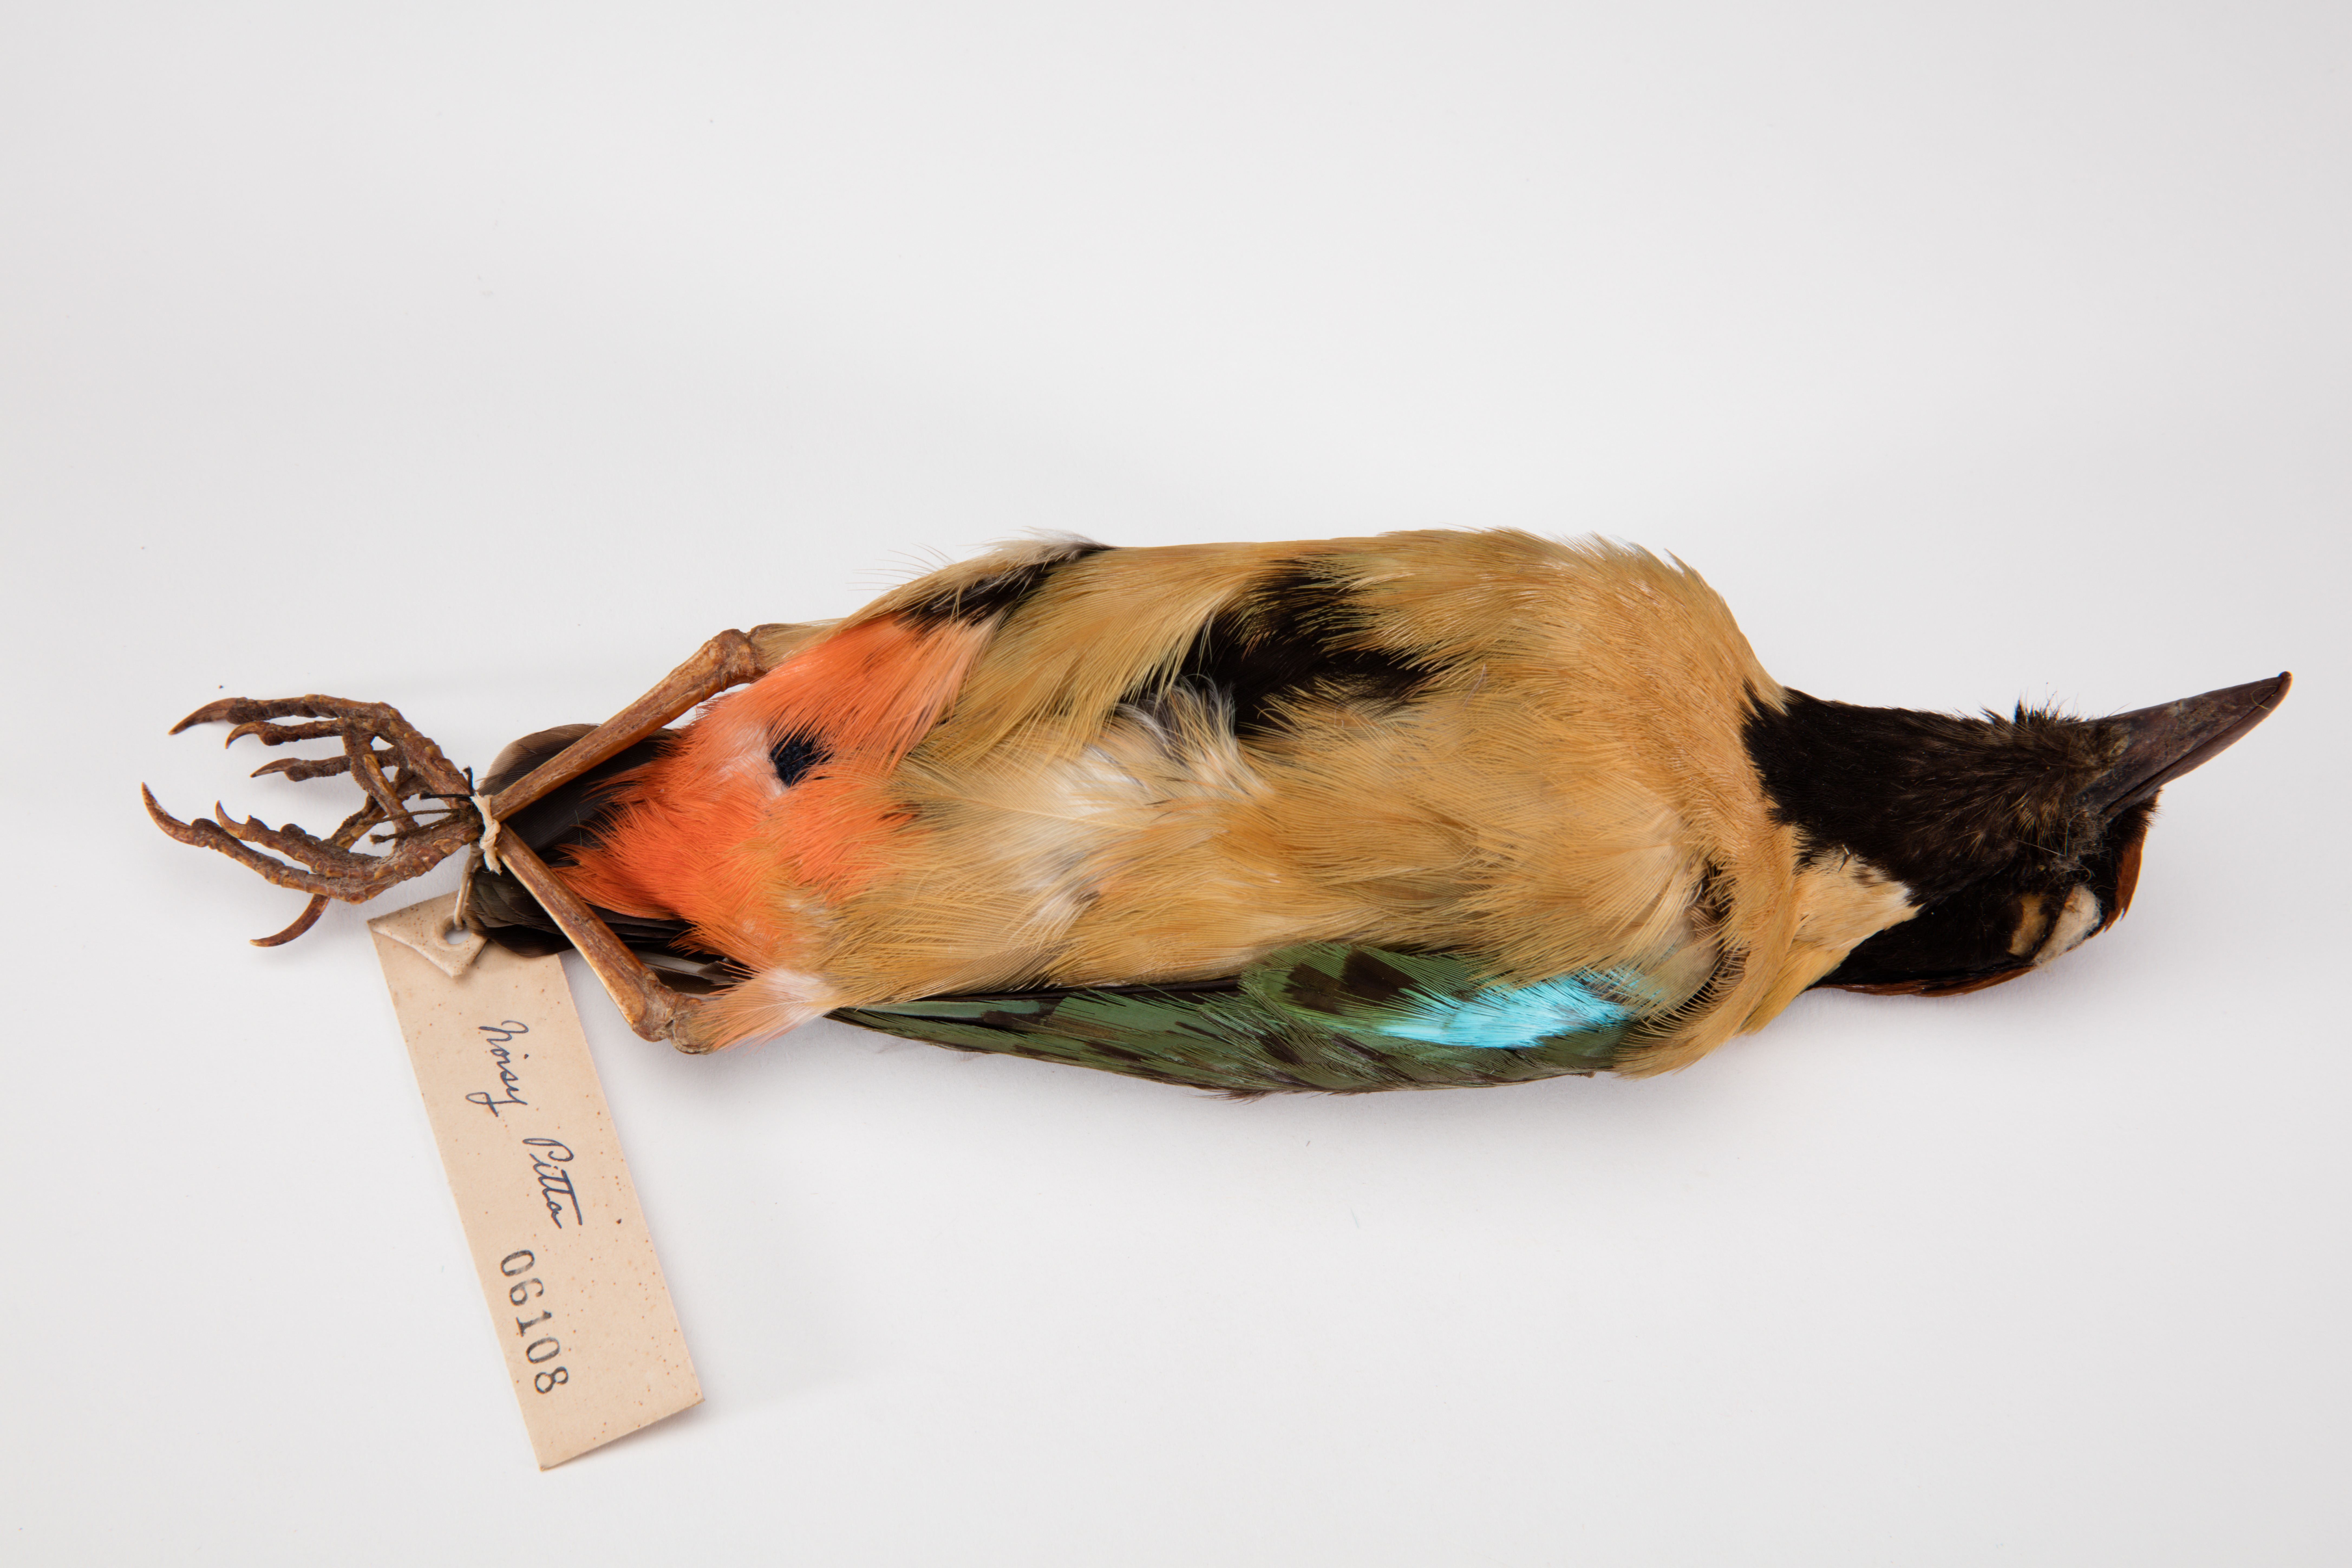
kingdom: Animalia
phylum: Chordata
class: Aves
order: Passeriformes
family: Pittidae
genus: Pitta
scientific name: Pitta versicolor
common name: Noisy pitta
